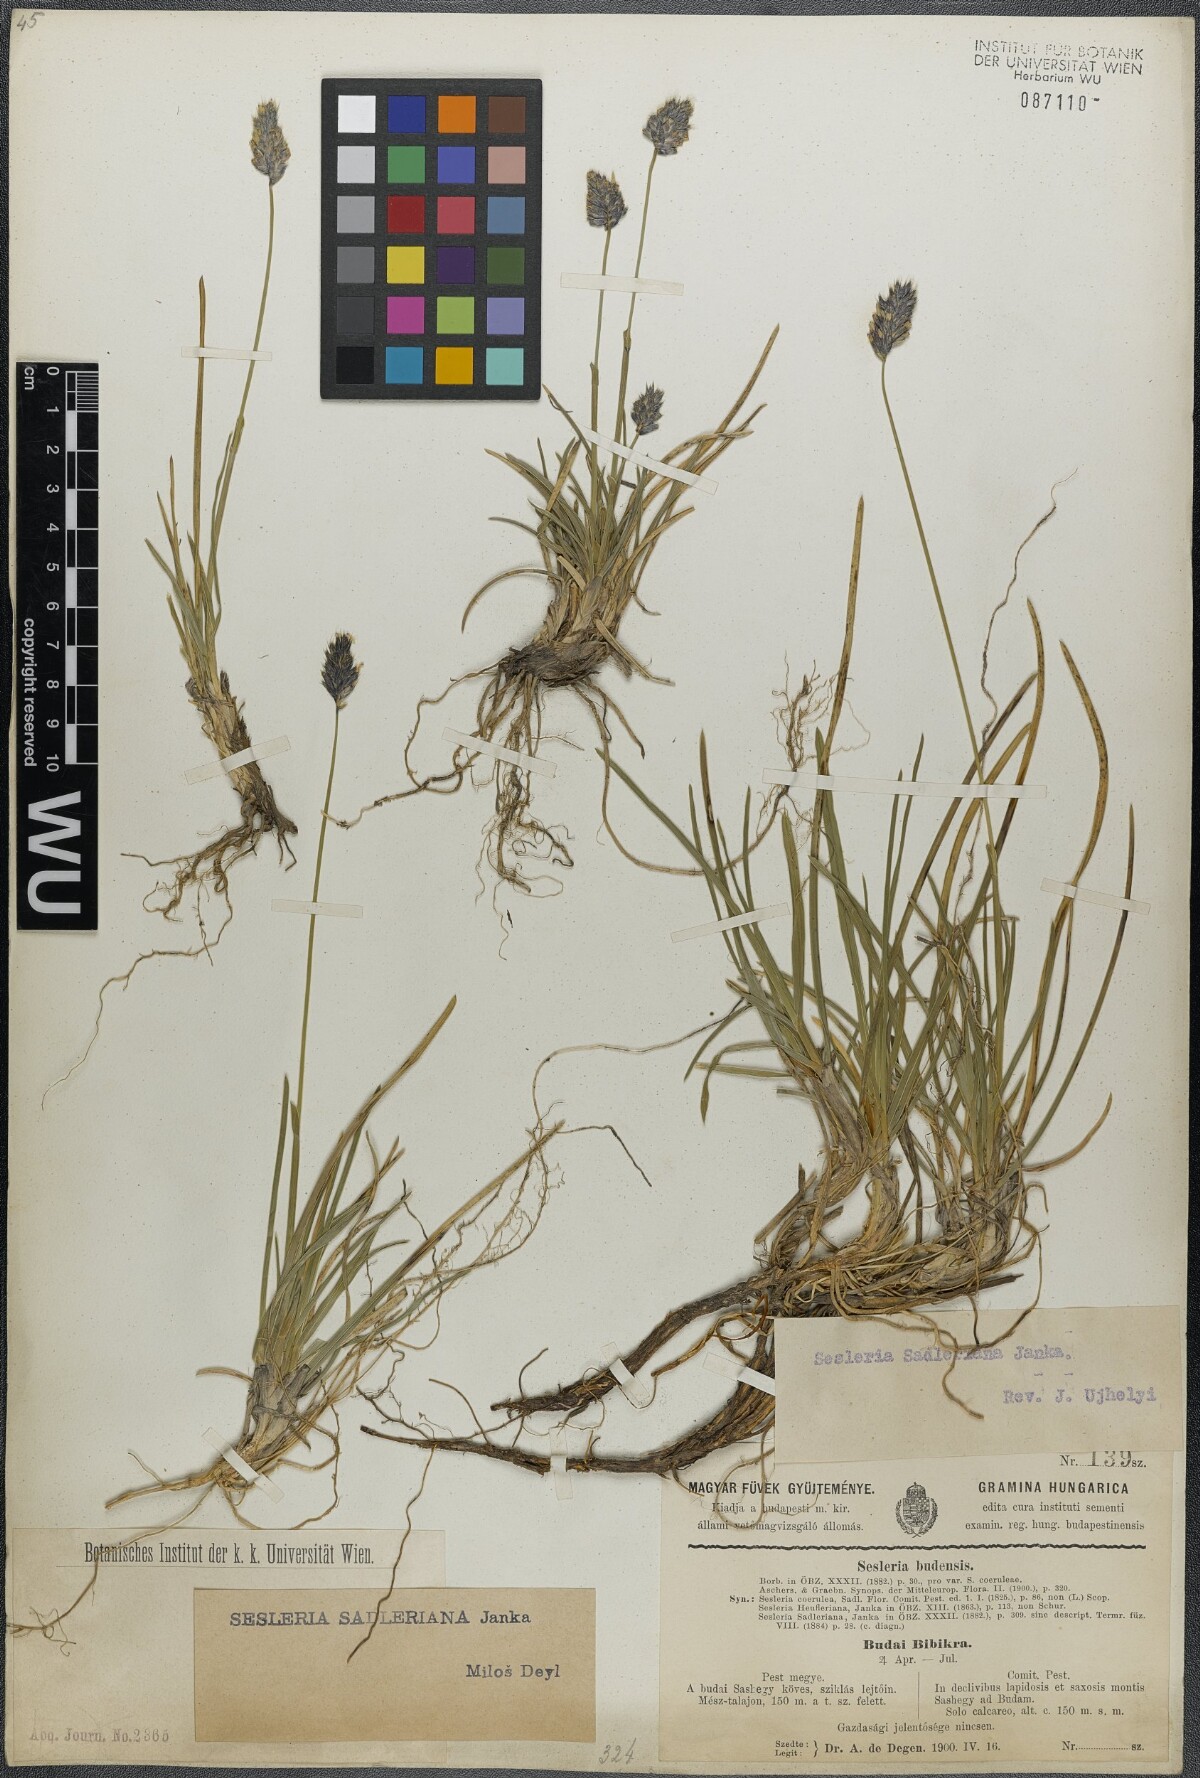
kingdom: Plantae
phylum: Tracheophyta
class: Liliopsida
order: Poales
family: Poaceae
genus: Sesleria
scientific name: Sesleria sadleriana
